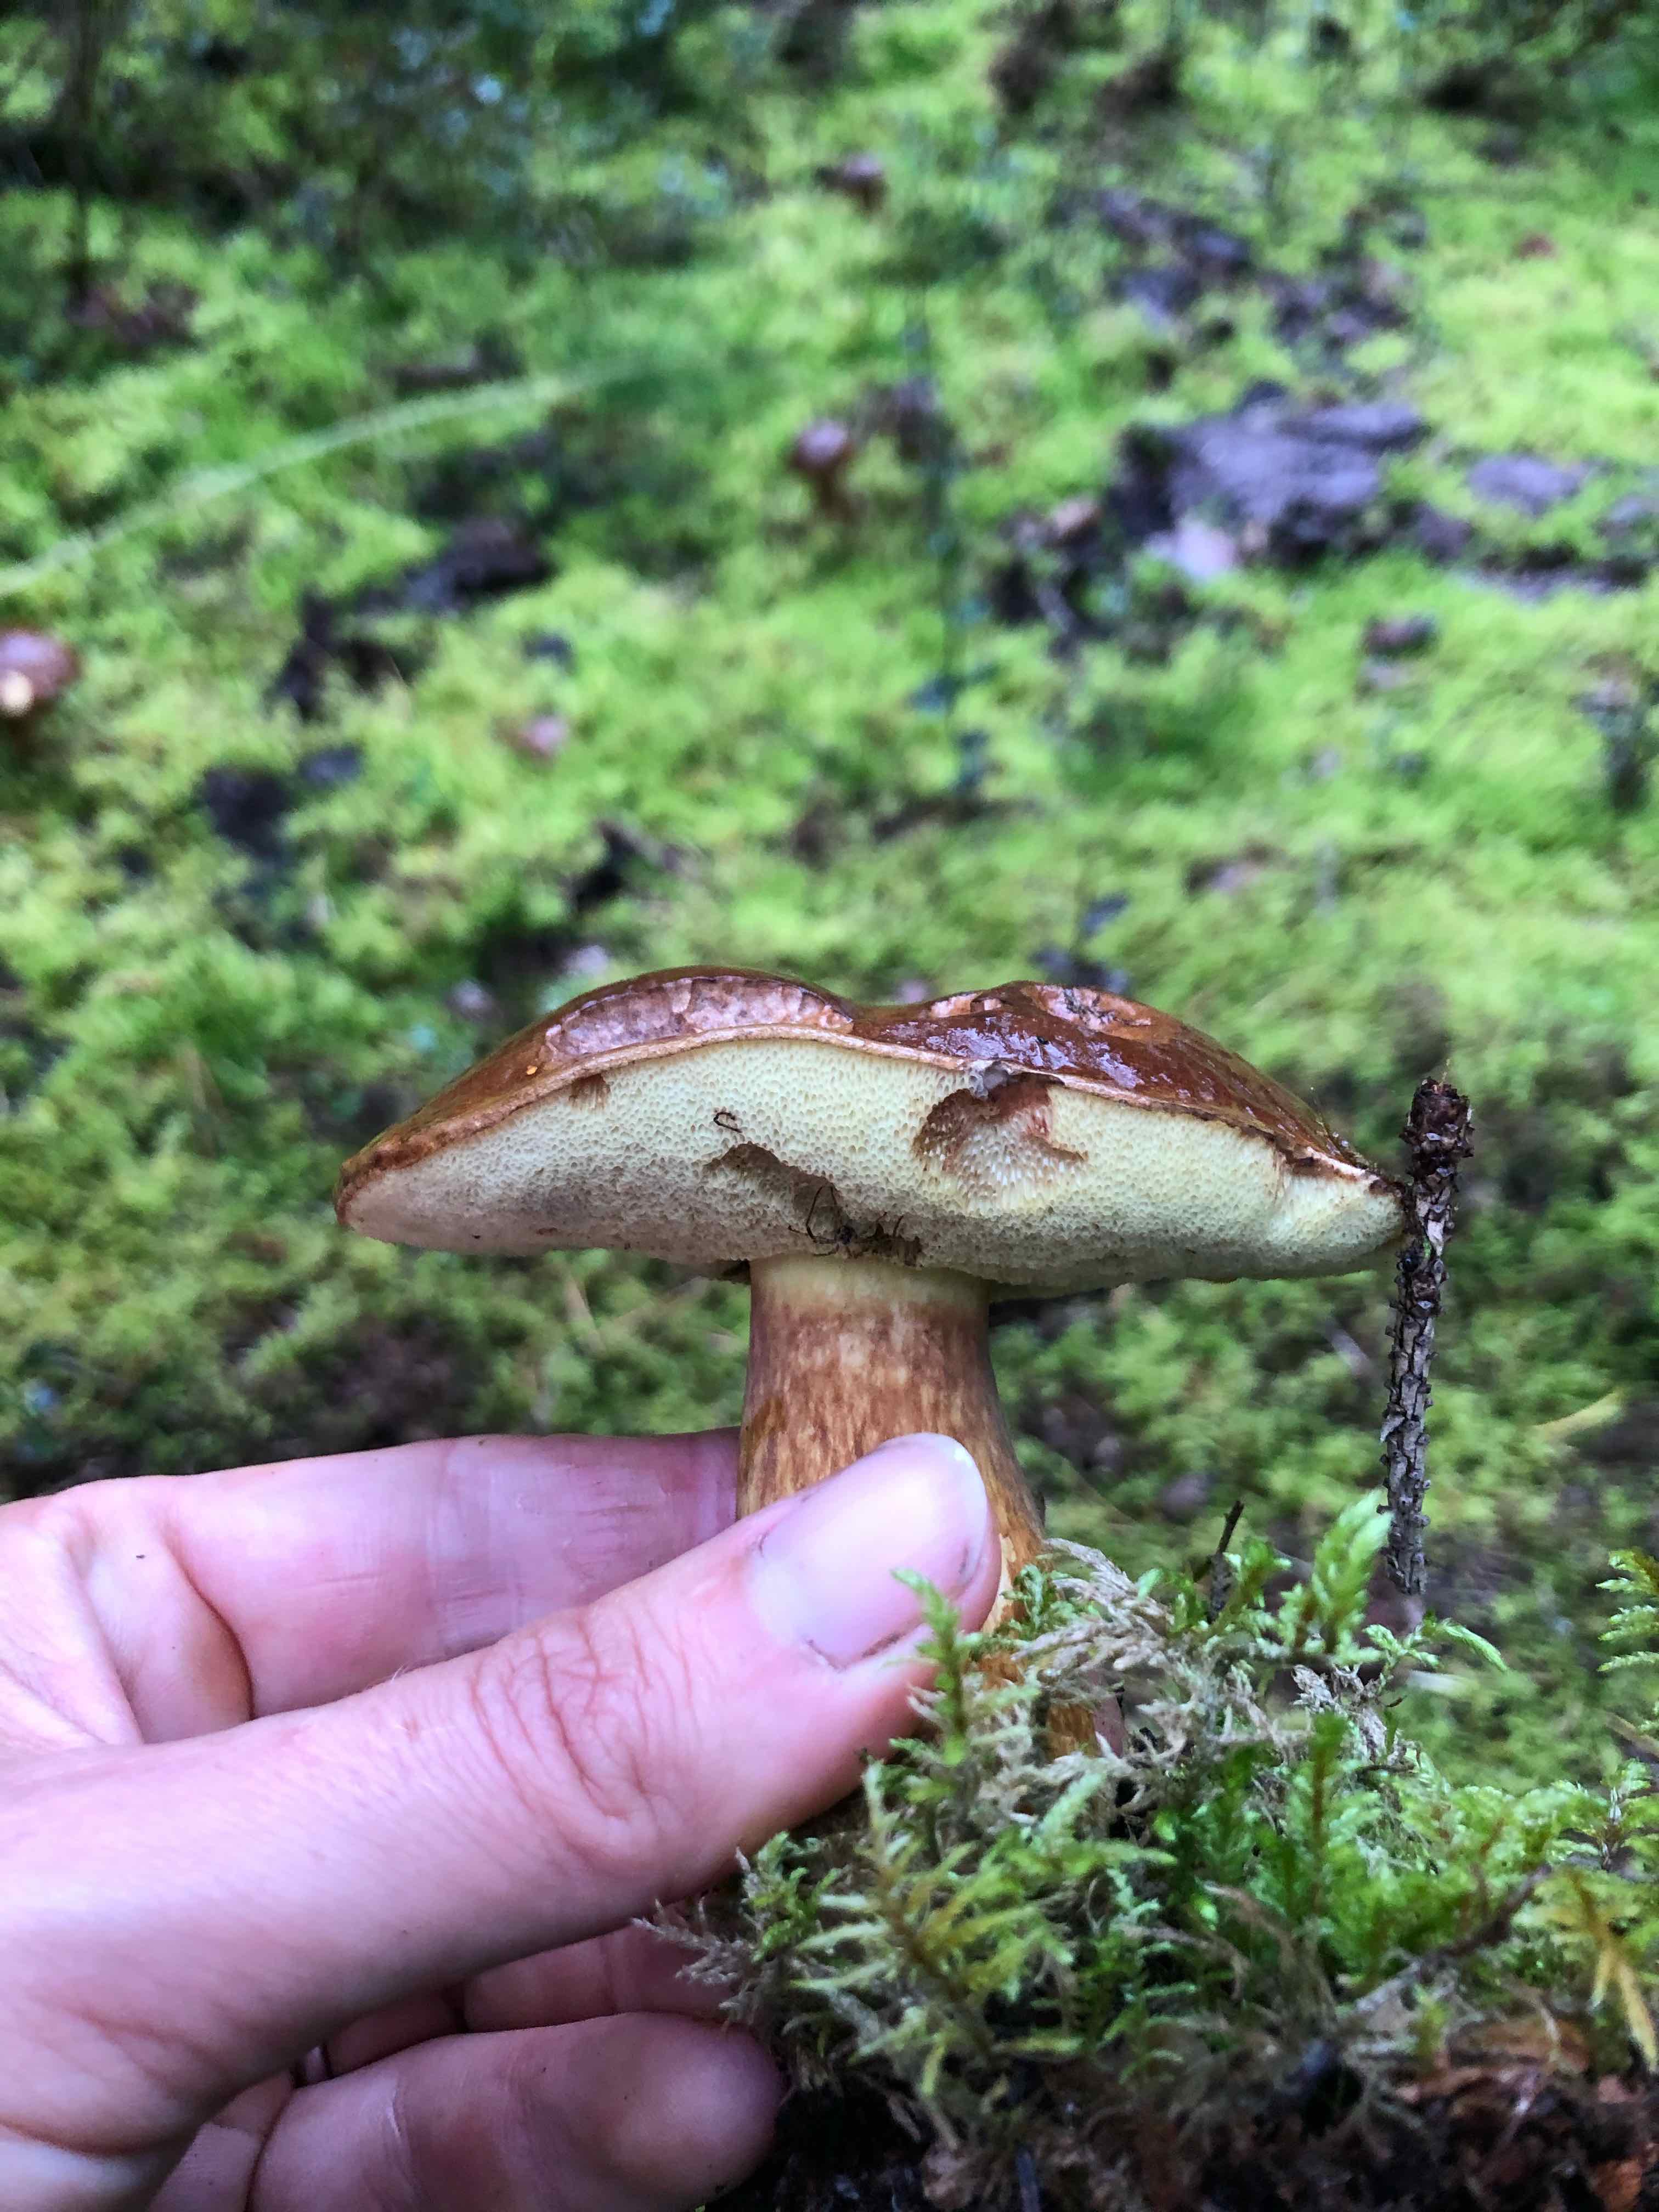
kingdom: Fungi
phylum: Basidiomycota
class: Agaricomycetes
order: Boletales
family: Boletaceae
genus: Imleria
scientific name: Imleria badia
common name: brunstokket rørhat
